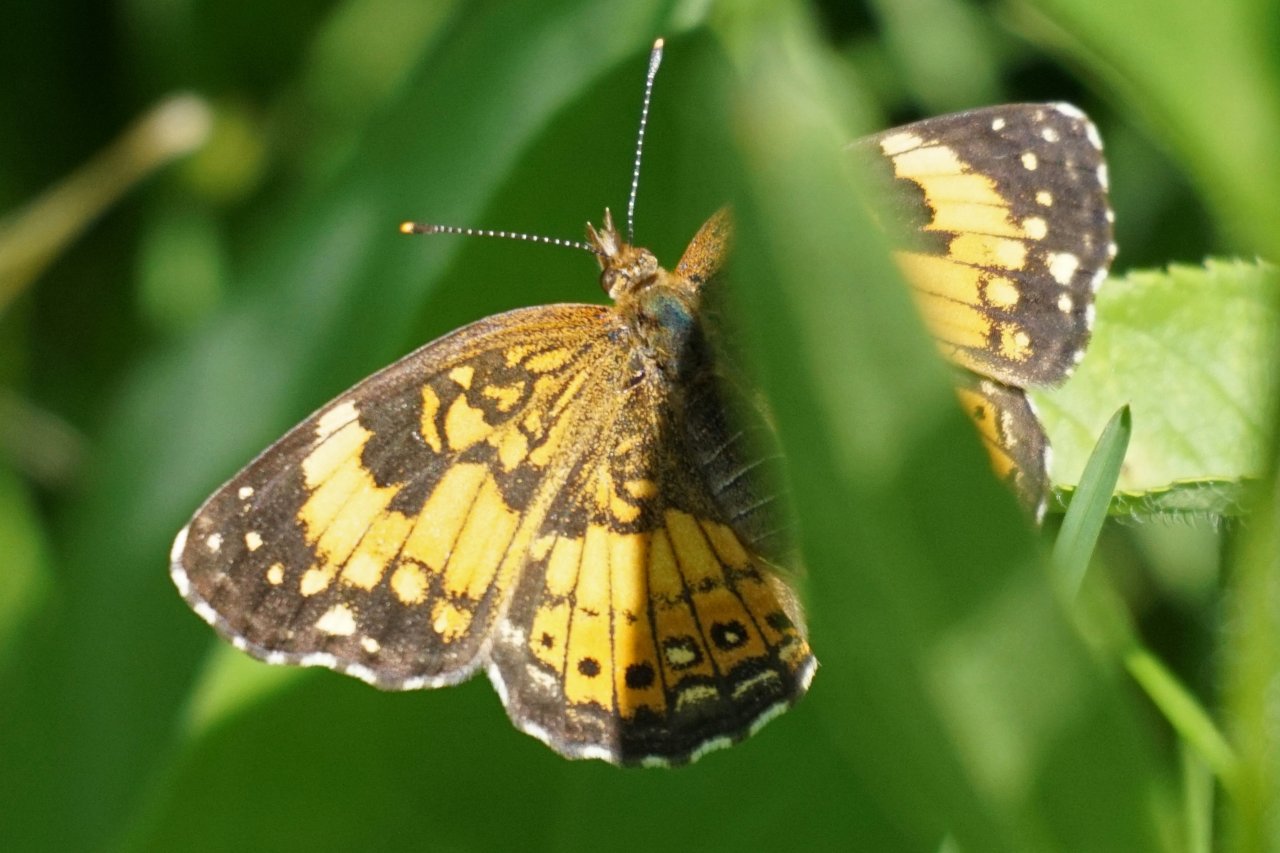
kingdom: Animalia
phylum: Arthropoda
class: Insecta
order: Lepidoptera
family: Nymphalidae
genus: Chlosyne
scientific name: Chlosyne nycteis
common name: Silvery Checkerspot
